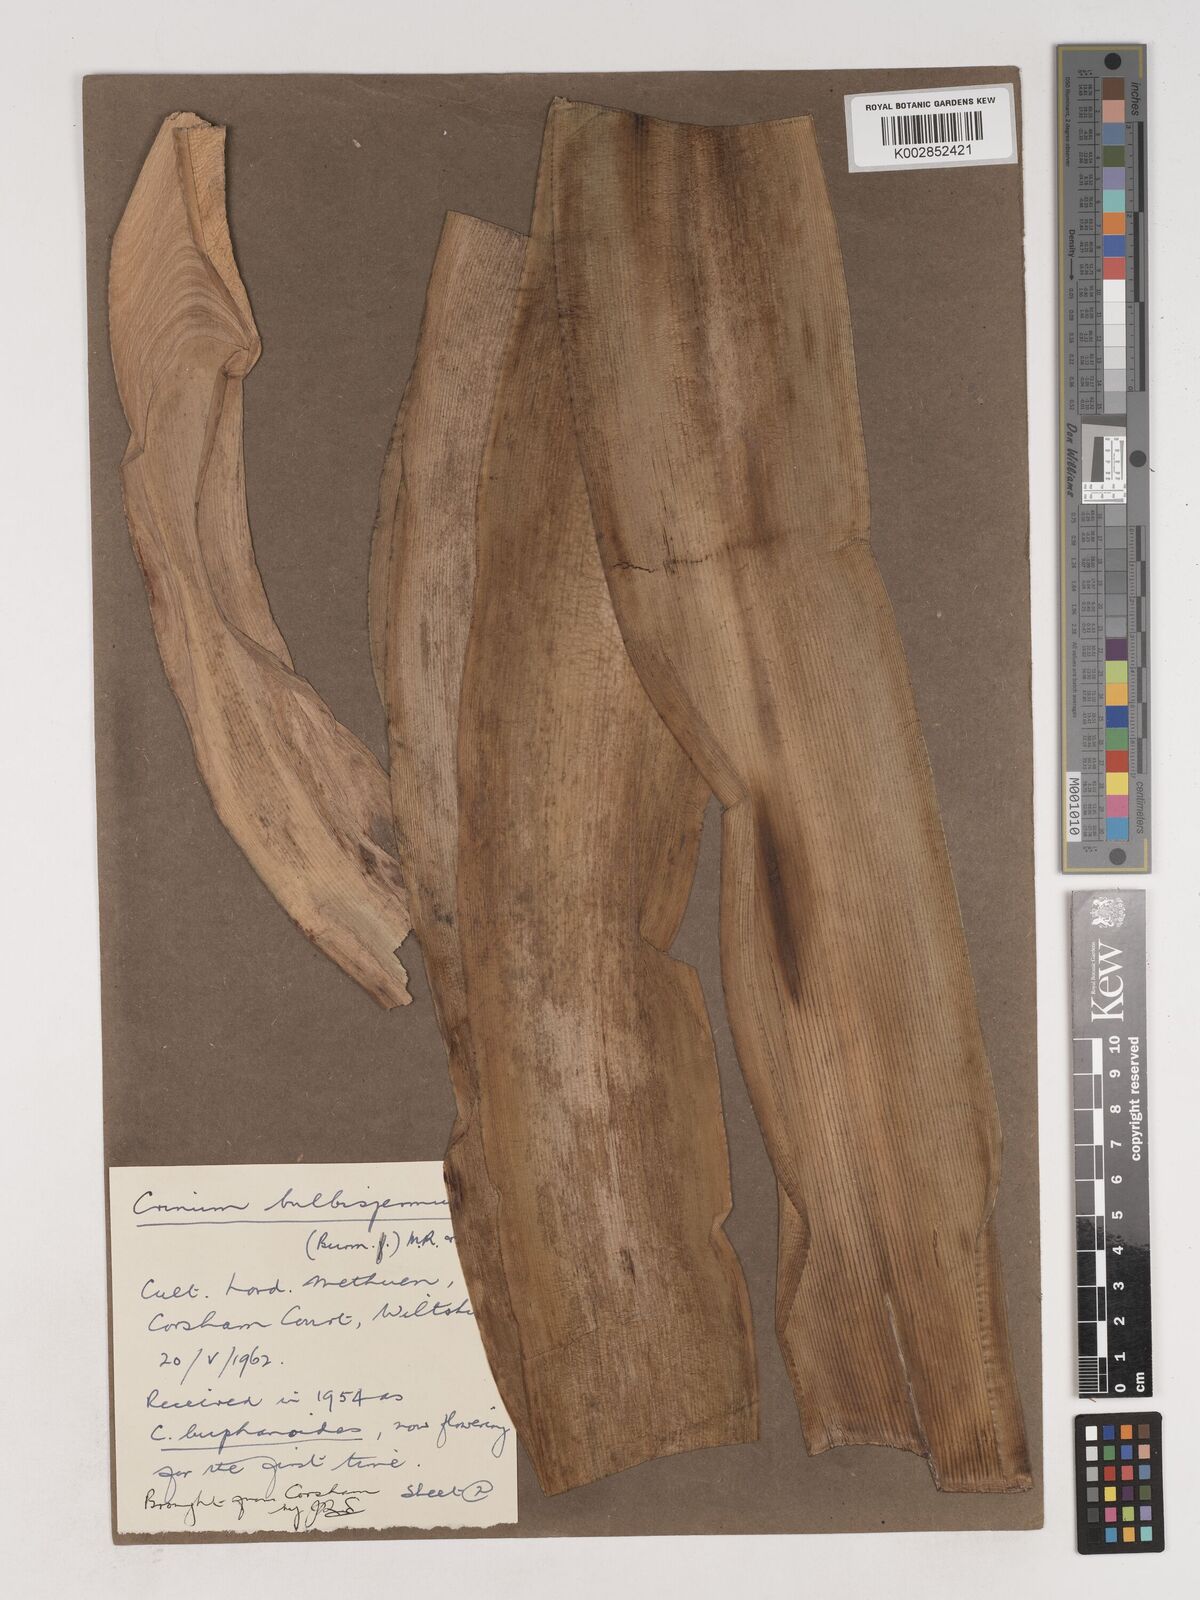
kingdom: Plantae
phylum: Tracheophyta
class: Liliopsida
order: Asparagales
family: Amaryllidaceae
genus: Crinum
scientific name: Crinum ornatum
